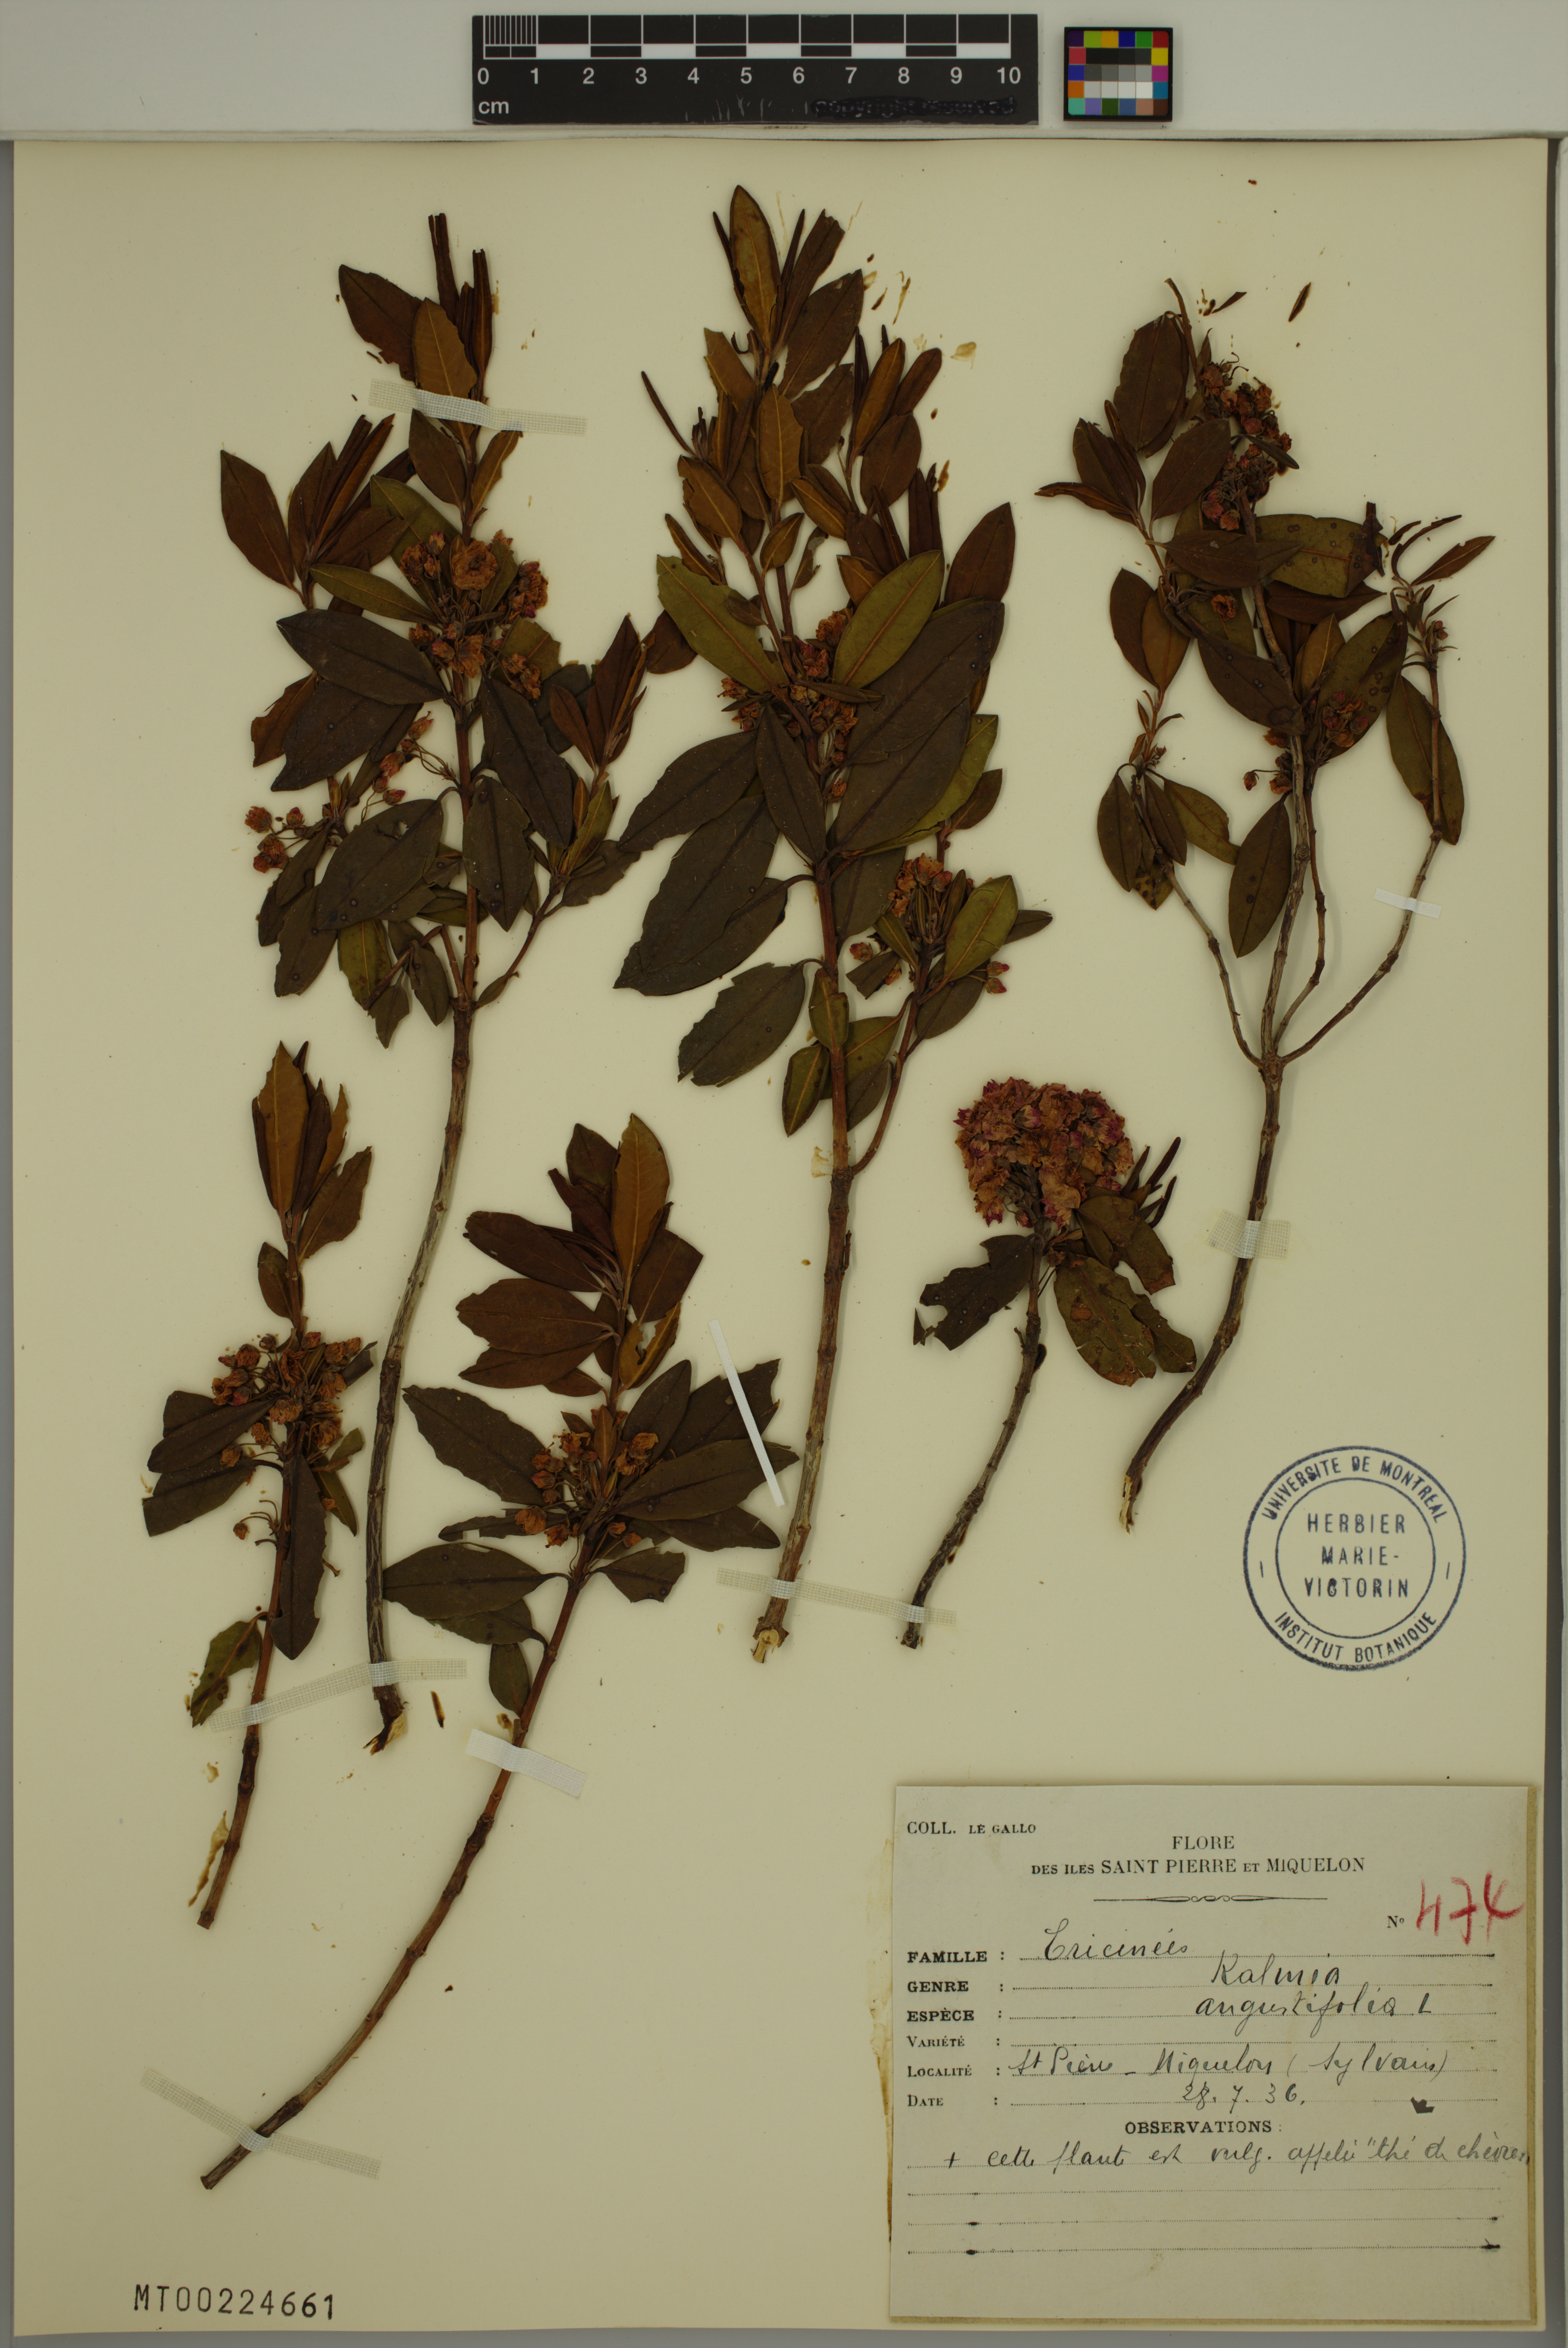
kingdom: Plantae
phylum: Tracheophyta
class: Magnoliopsida
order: Ericales
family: Ericaceae
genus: Kalmia
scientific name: Kalmia angustifolia
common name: Sheep-laurel
